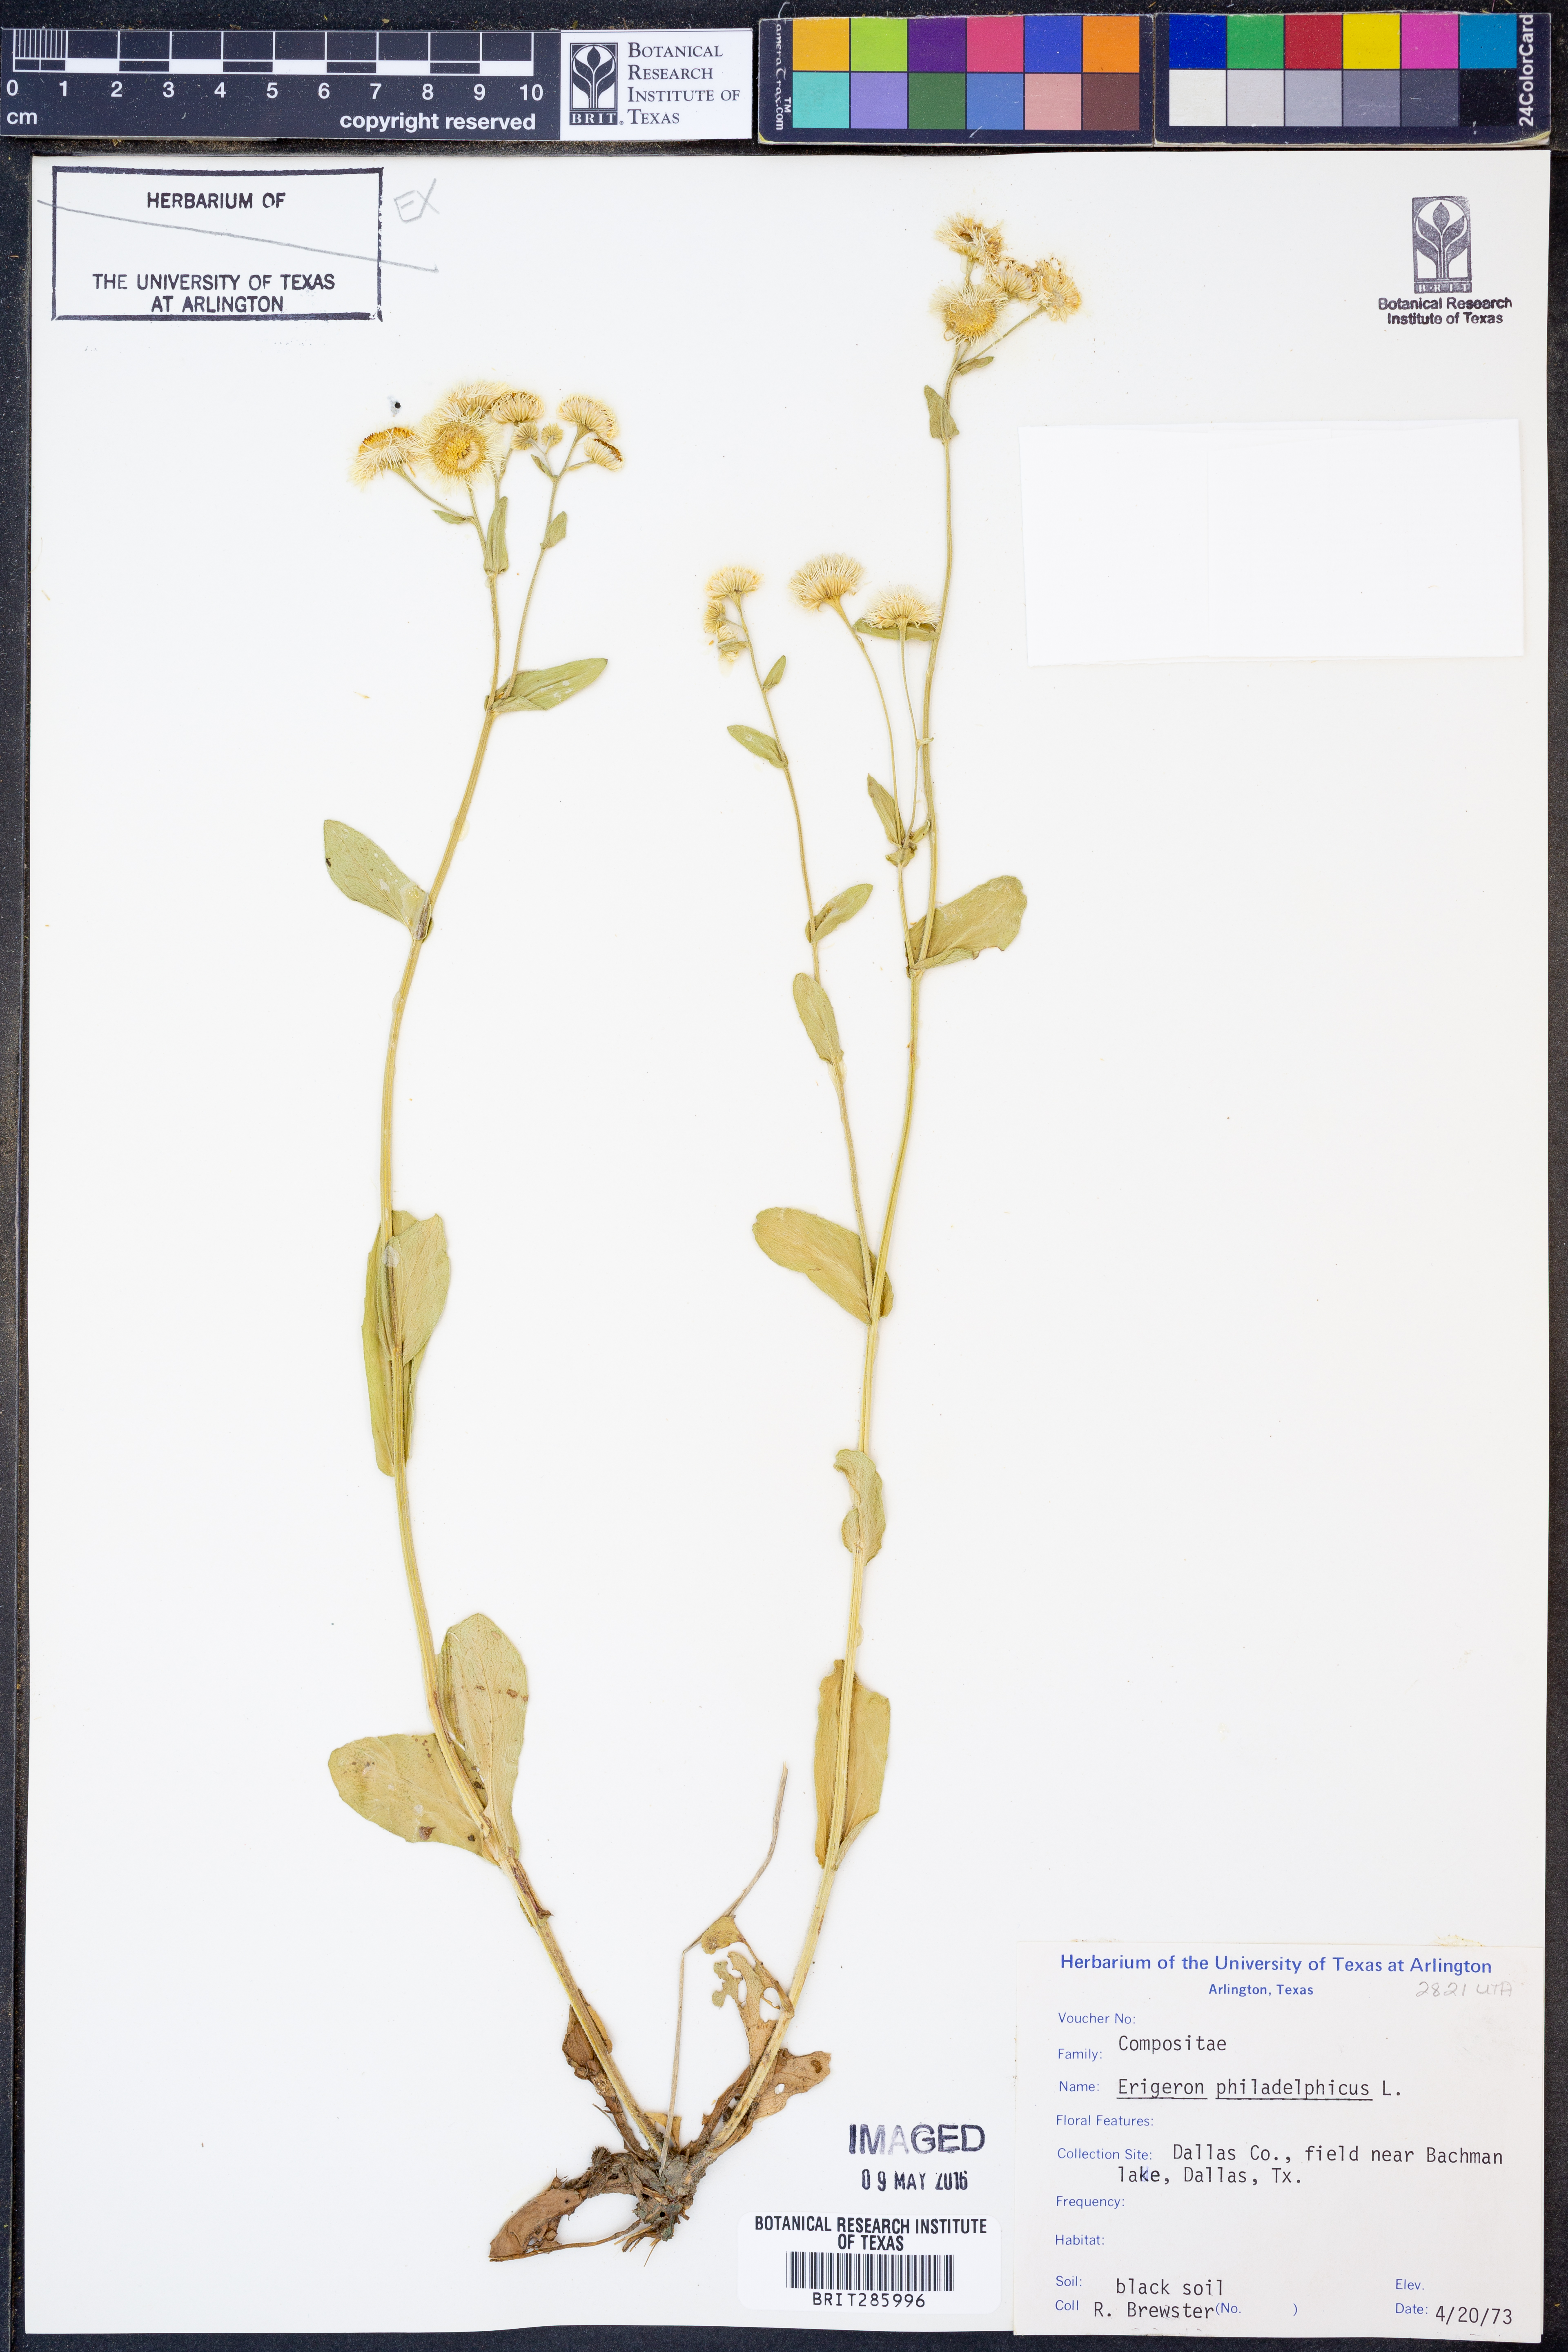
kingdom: Plantae
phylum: Tracheophyta
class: Magnoliopsida
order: Asterales
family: Asteraceae
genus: Erigeron
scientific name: Erigeron philadelphicus
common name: Robin's-plantain
